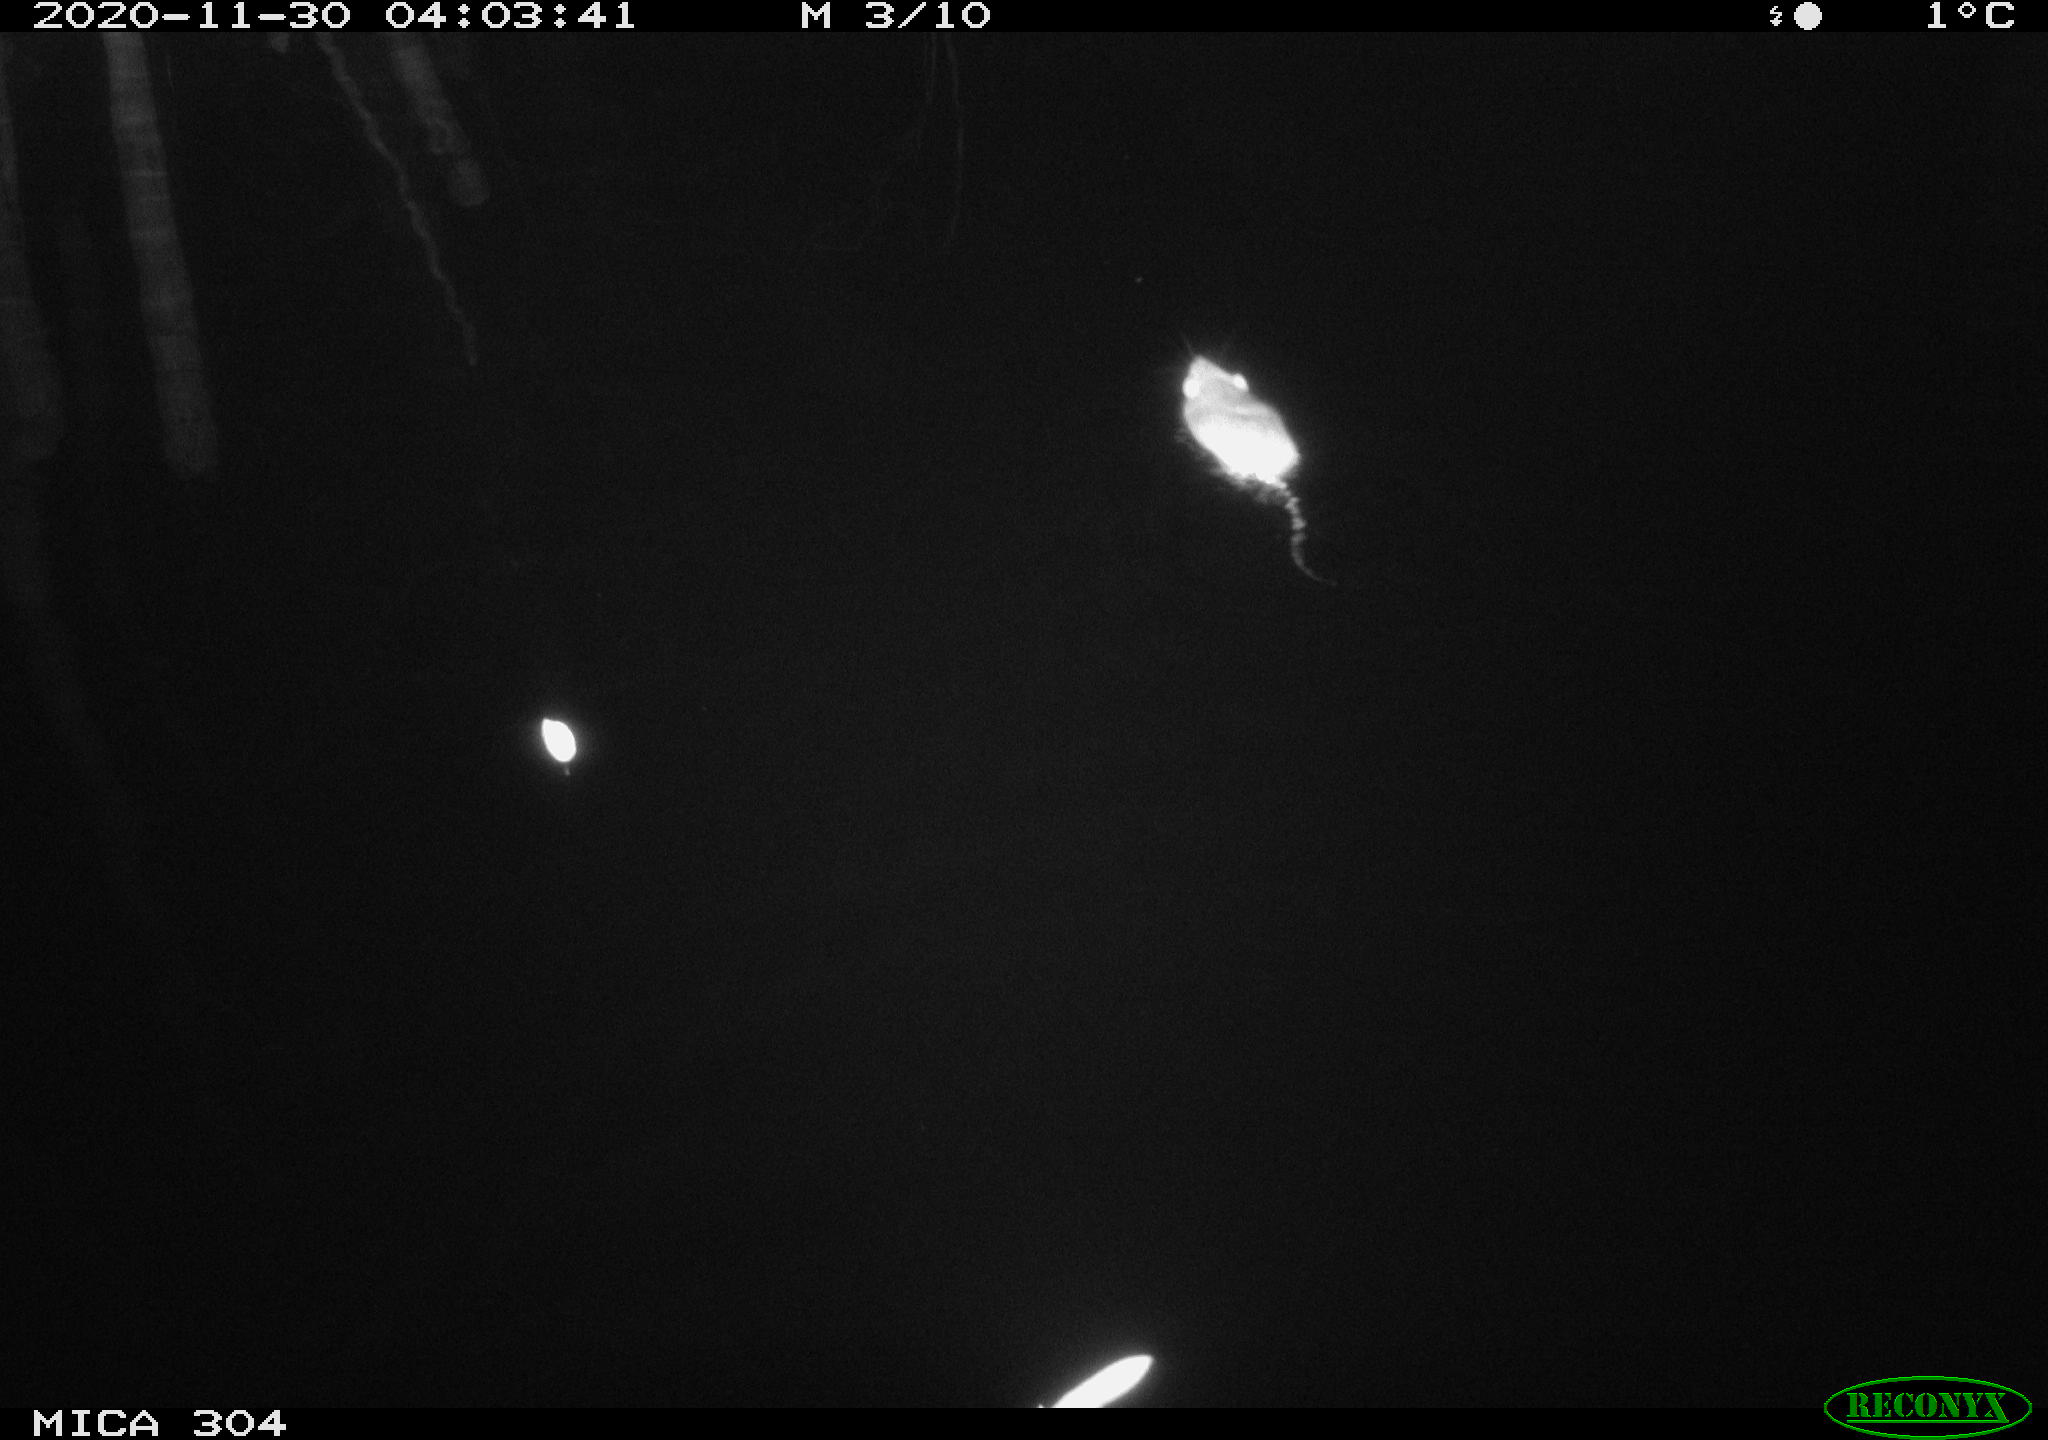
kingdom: Animalia
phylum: Chordata
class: Mammalia
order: Rodentia
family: Muridae
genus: Rattus
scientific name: Rattus norvegicus
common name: Brown rat
